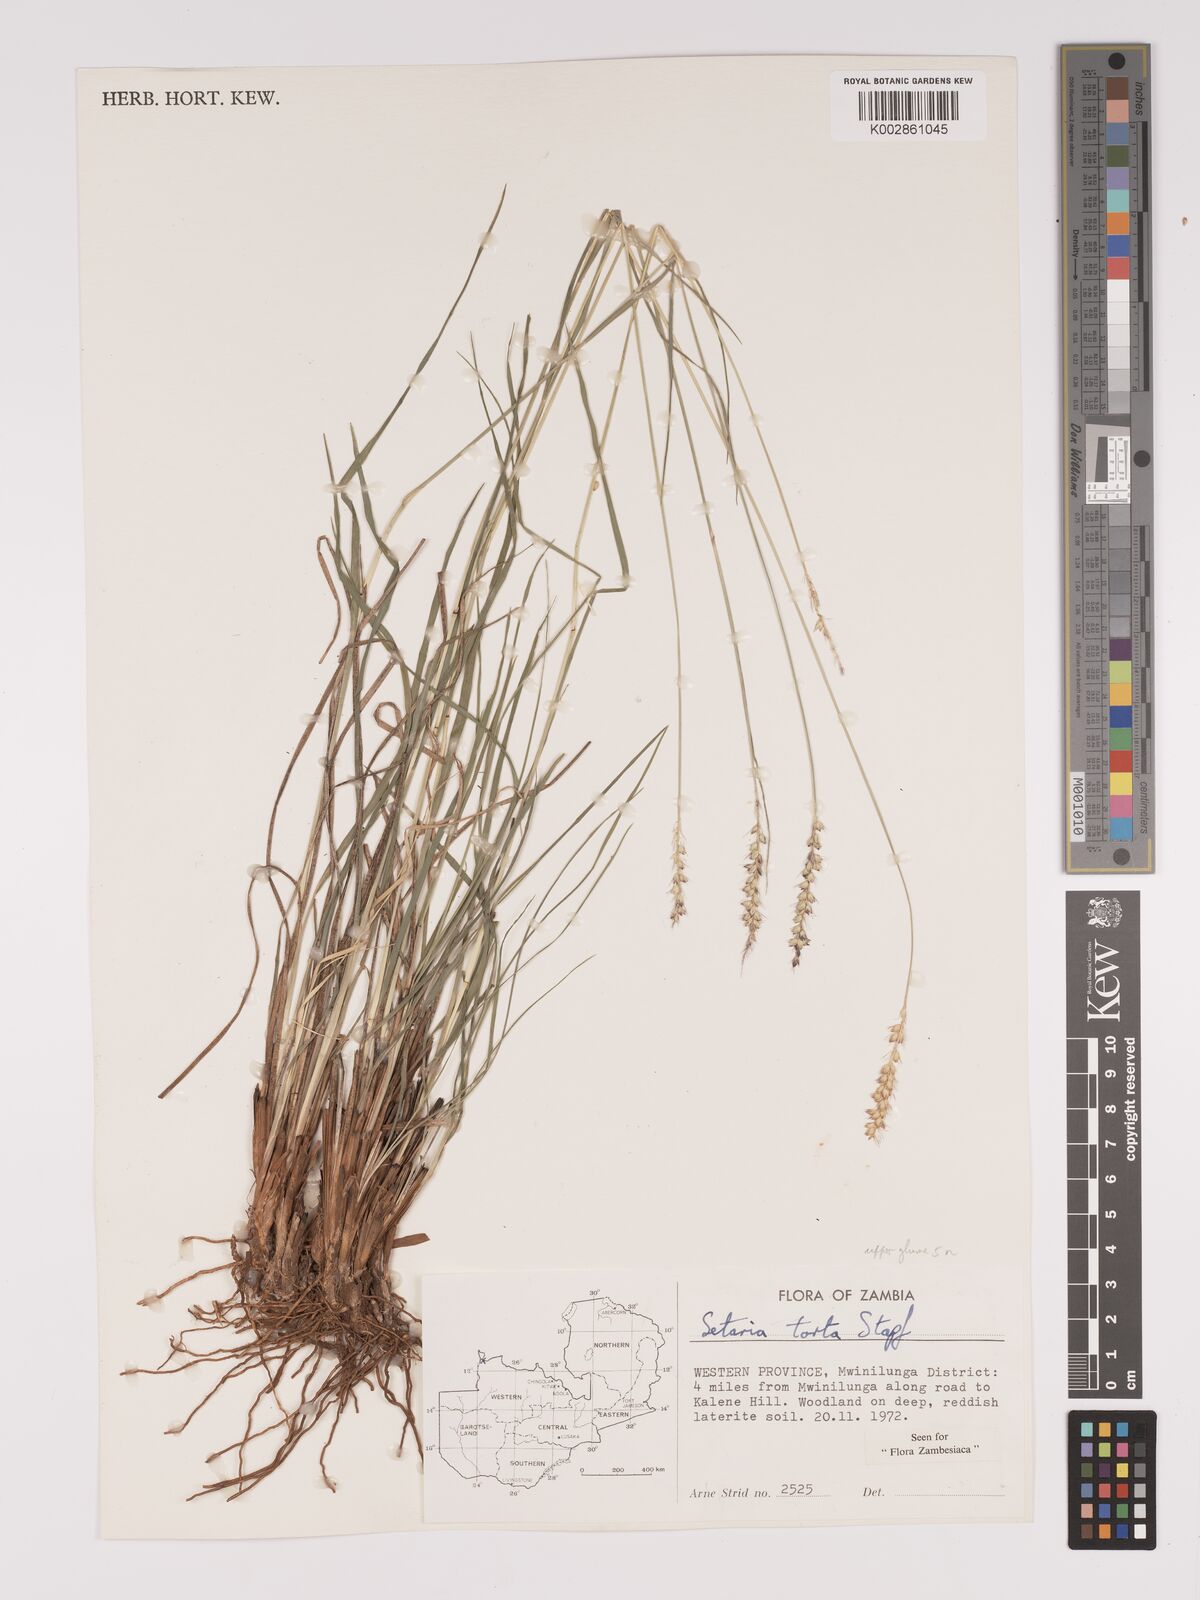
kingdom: Plantae
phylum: Tracheophyta
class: Liliopsida
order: Poales
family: Poaceae
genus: Setaria
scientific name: Setaria sphacelata
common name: African bristlegrass
